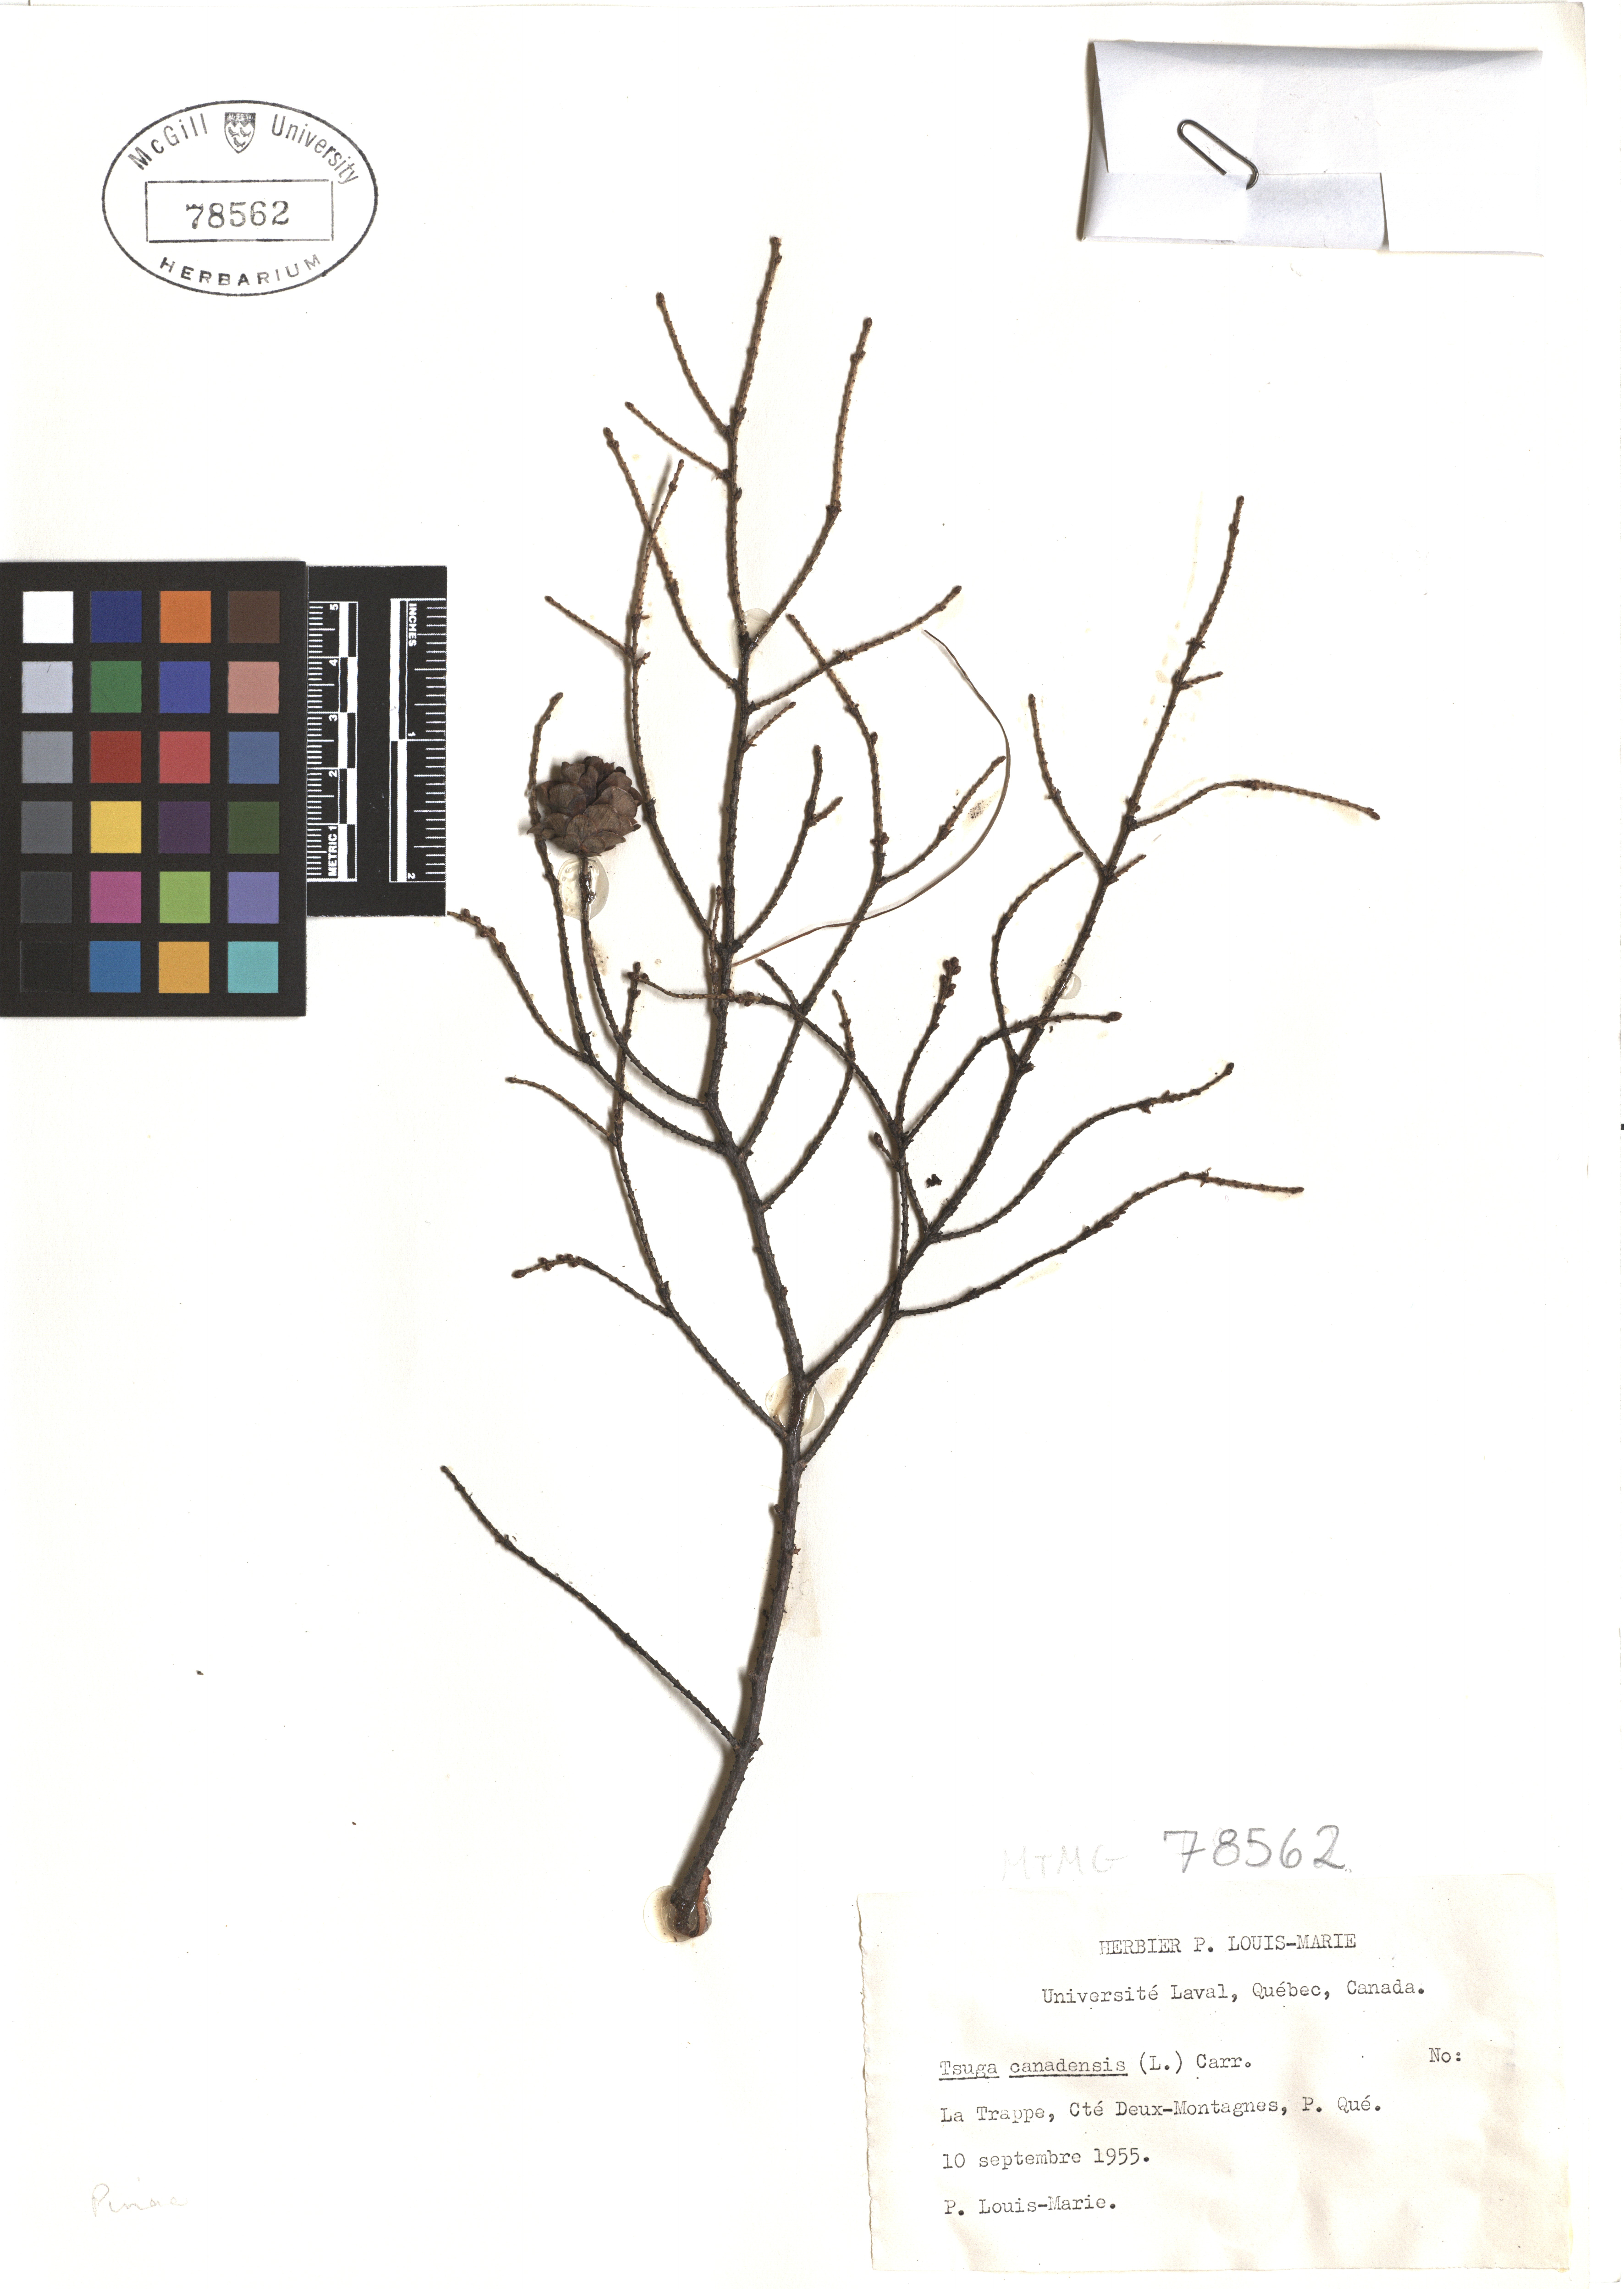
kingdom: Plantae
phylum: Tracheophyta
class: Pinopsida
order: Pinales
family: Pinaceae
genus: Tsuga
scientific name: Tsuga canadensis
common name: Eastern hemlock
